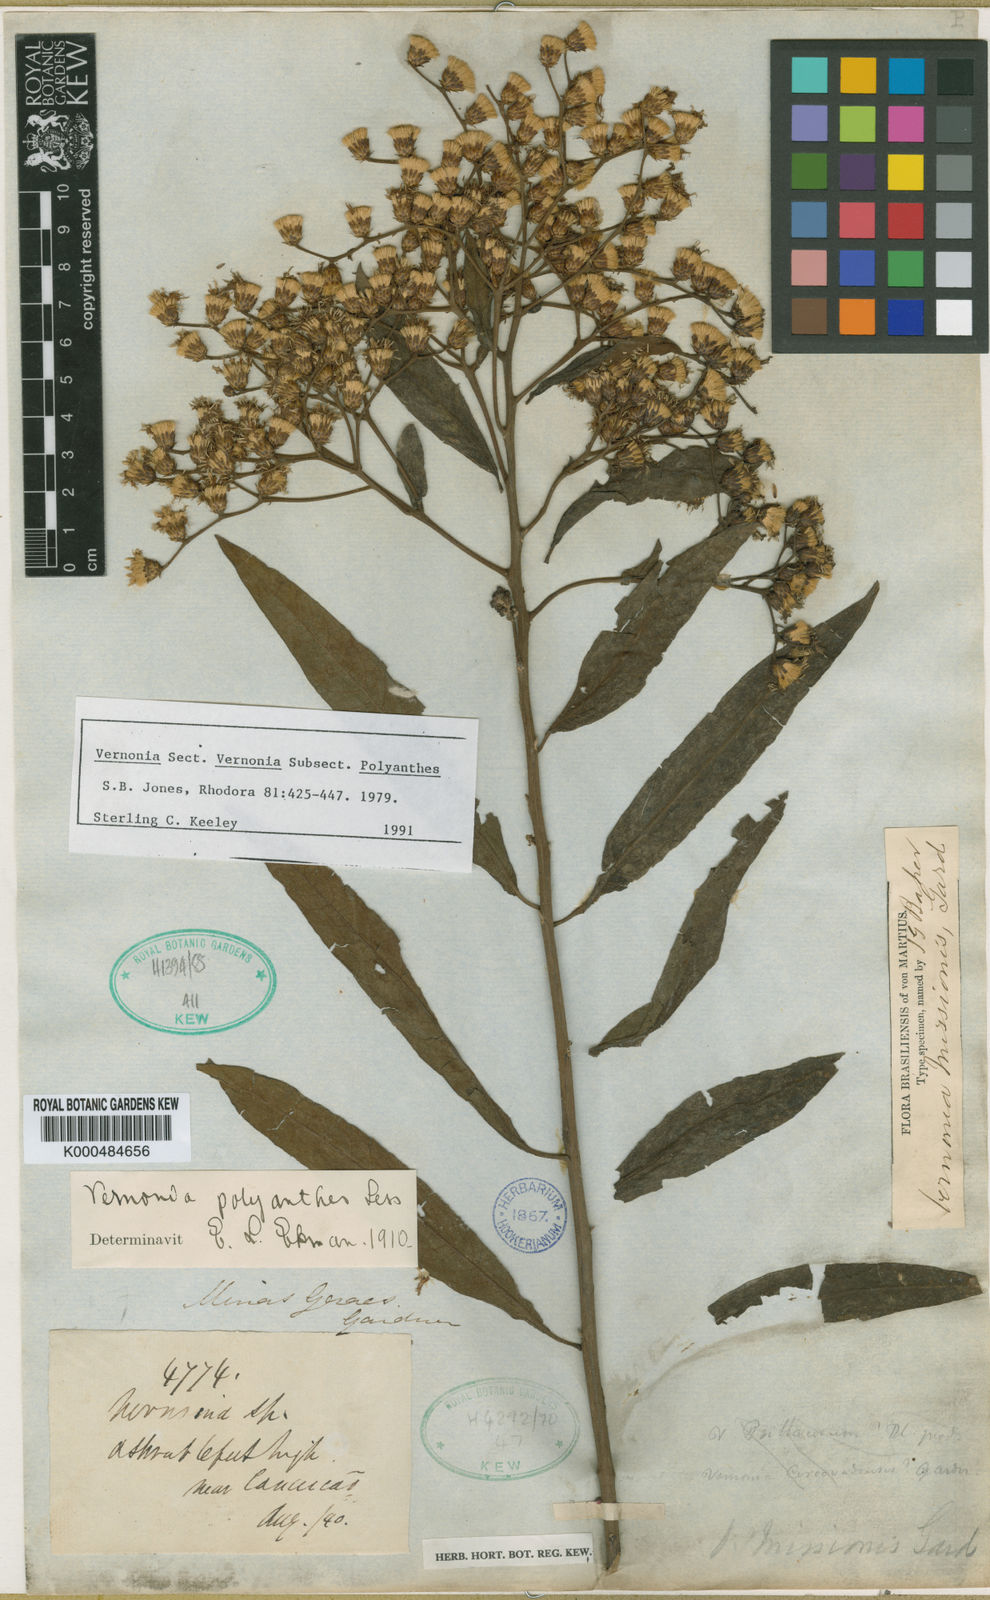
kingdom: Plantae
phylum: Tracheophyta
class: Magnoliopsida
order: Asterales
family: Asteraceae
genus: Vernonanthura
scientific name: Vernonanthura cymosa
